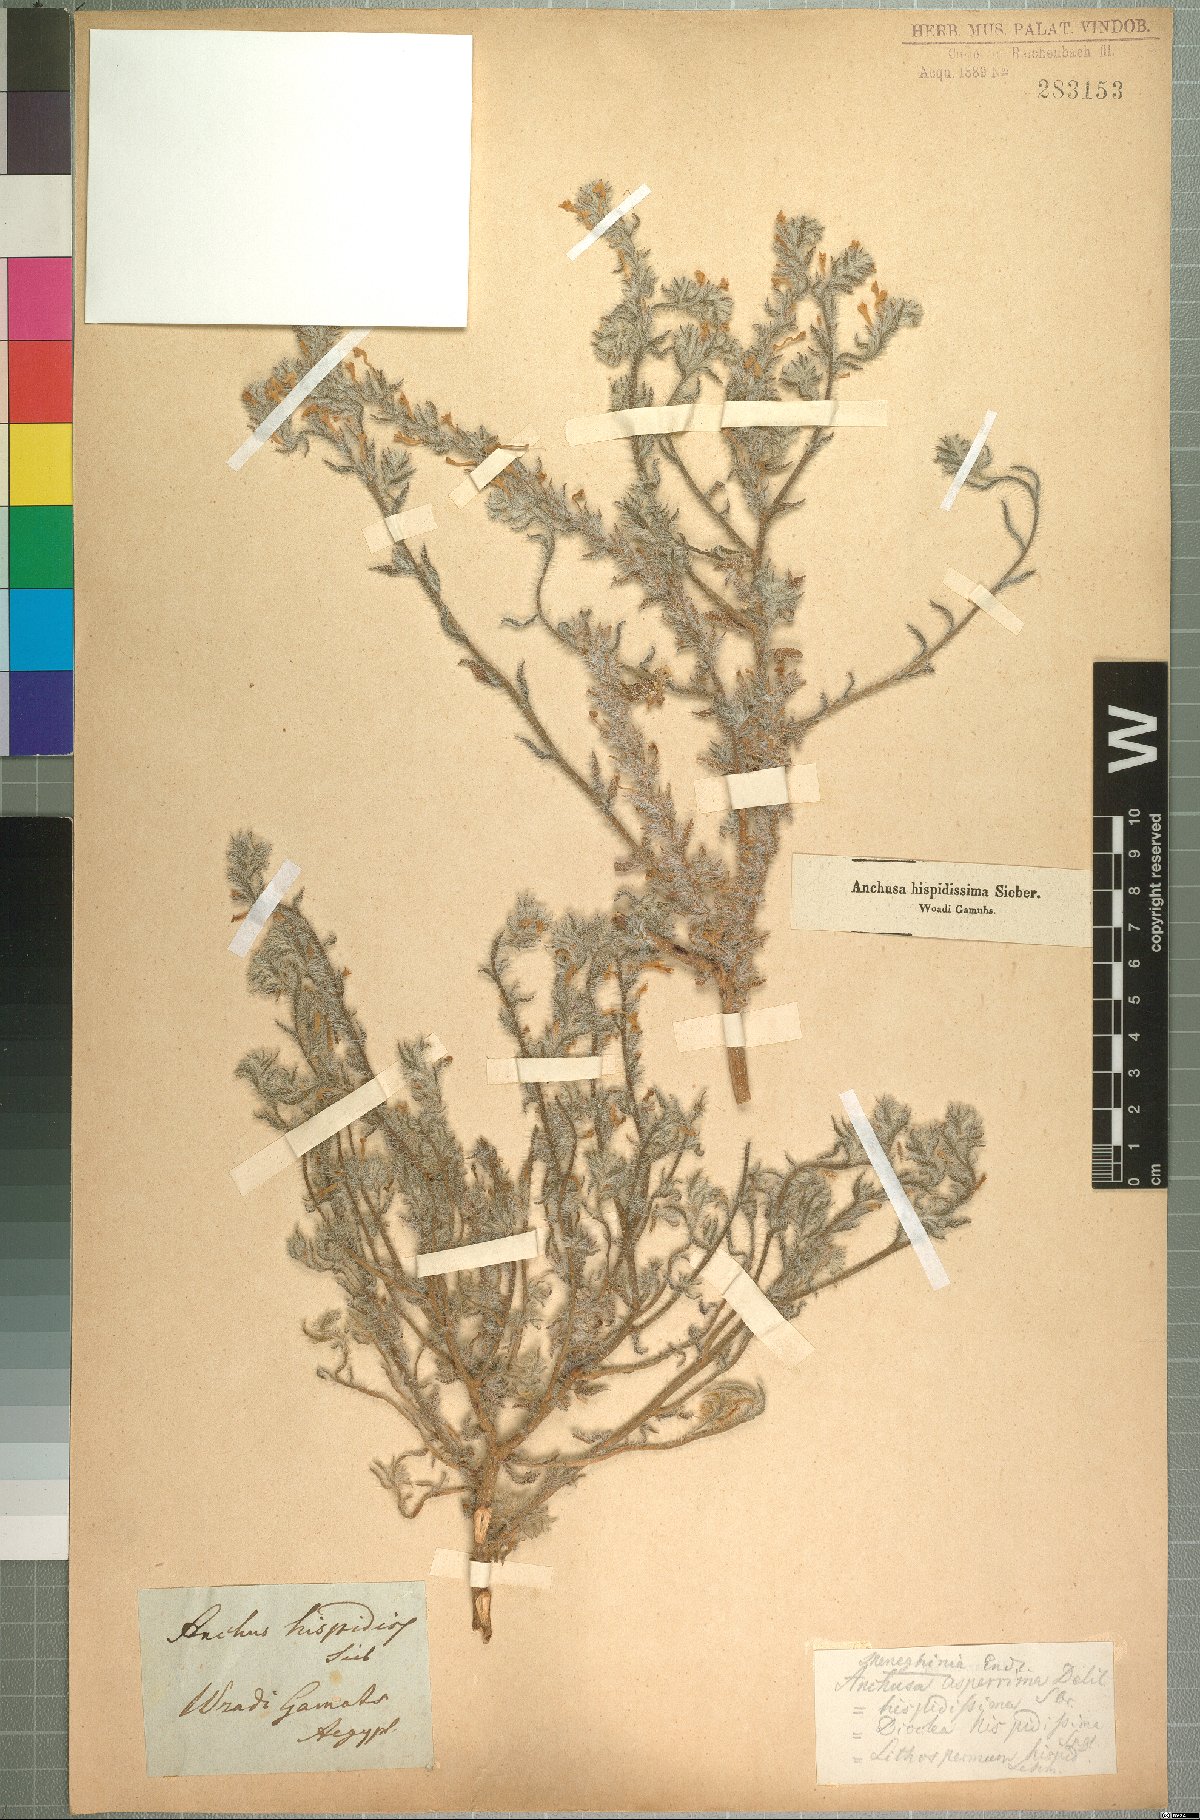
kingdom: Plantae
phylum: Tracheophyta
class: Magnoliopsida
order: Boraginales
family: Boraginaceae
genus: Arnebia
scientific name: Arnebia hispidissima
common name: Arabian-primrose
